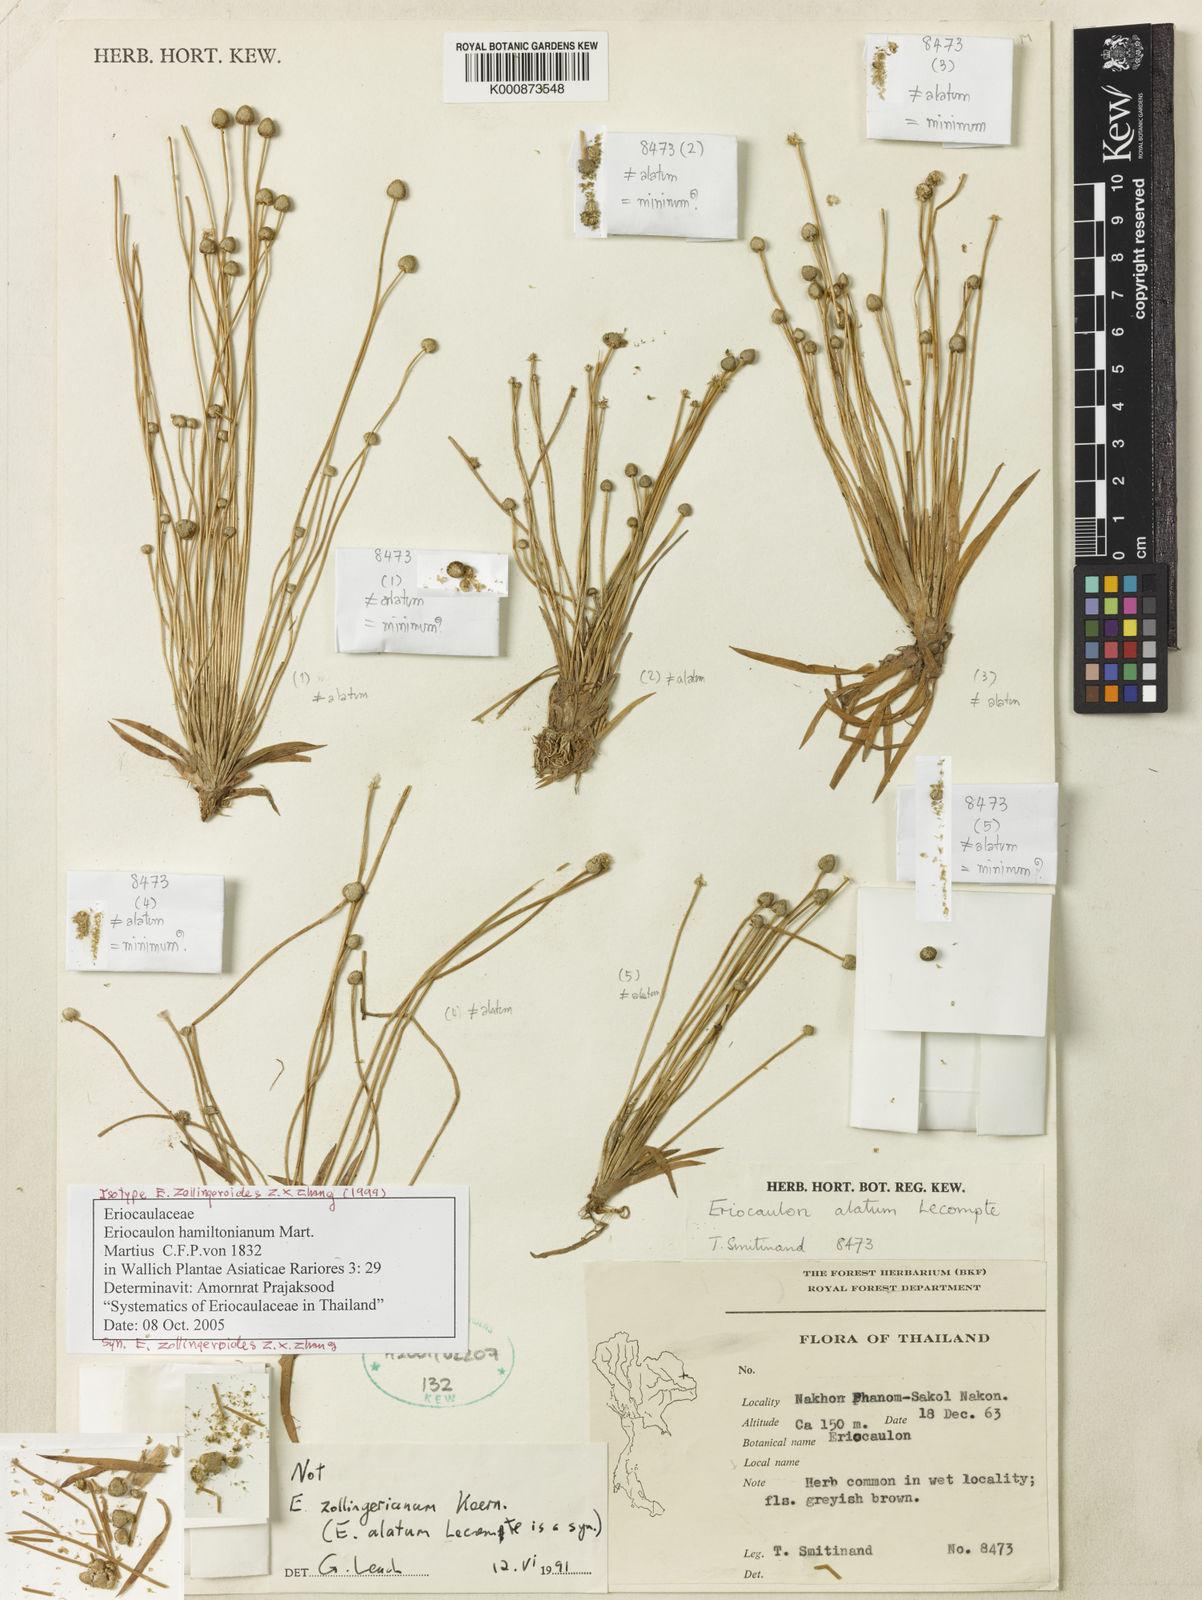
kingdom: Plantae
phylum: Tracheophyta
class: Liliopsida
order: Poales
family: Eriocaulaceae
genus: Eriocaulon
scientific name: Eriocaulon hamiltonianum
